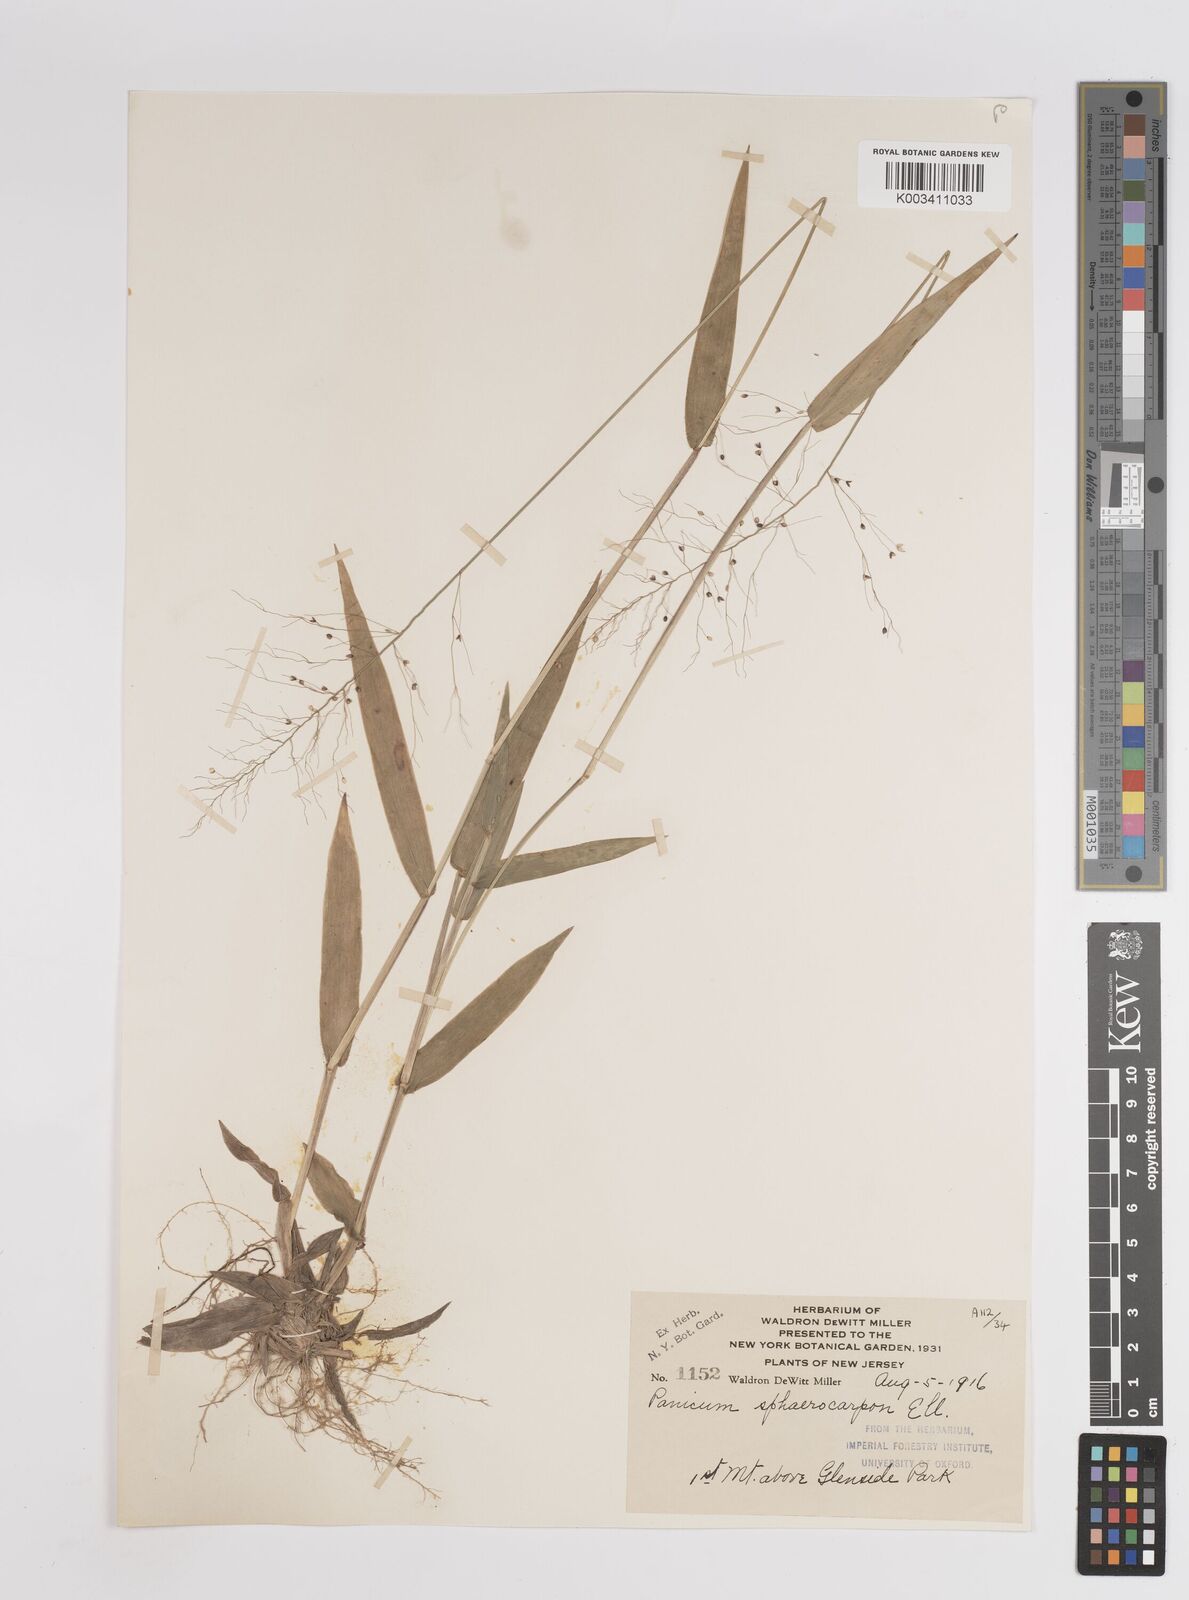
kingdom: Plantae
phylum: Tracheophyta
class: Liliopsida
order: Poales
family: Poaceae
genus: Setaria
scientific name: Setaria tenax
